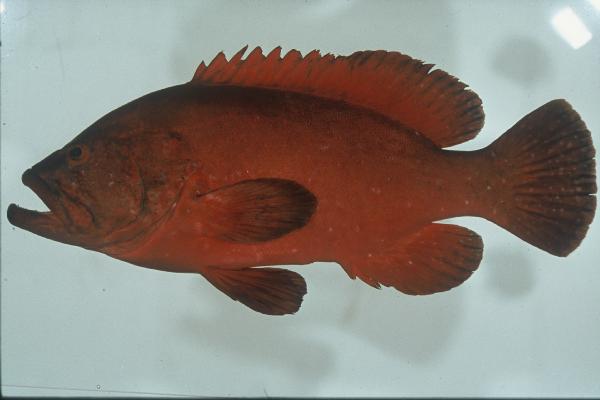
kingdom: Animalia
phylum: Chordata
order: Perciformes
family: Serranidae
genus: Cephalopholis
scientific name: Cephalopholis sonnerati
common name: Tomato hind
